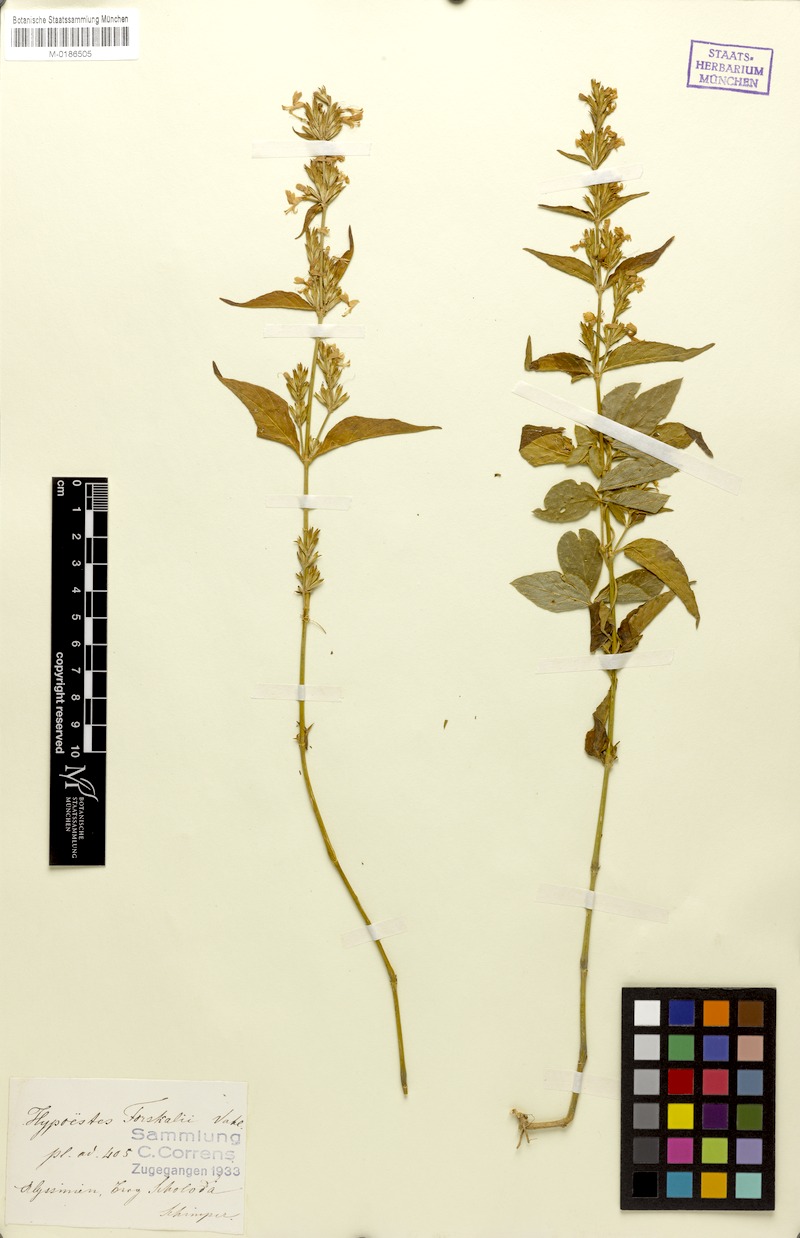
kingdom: Plantae
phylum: Tracheophyta
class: Magnoliopsida
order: Lamiales
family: Acanthaceae
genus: Hypoestes
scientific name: Hypoestes forskaolii
